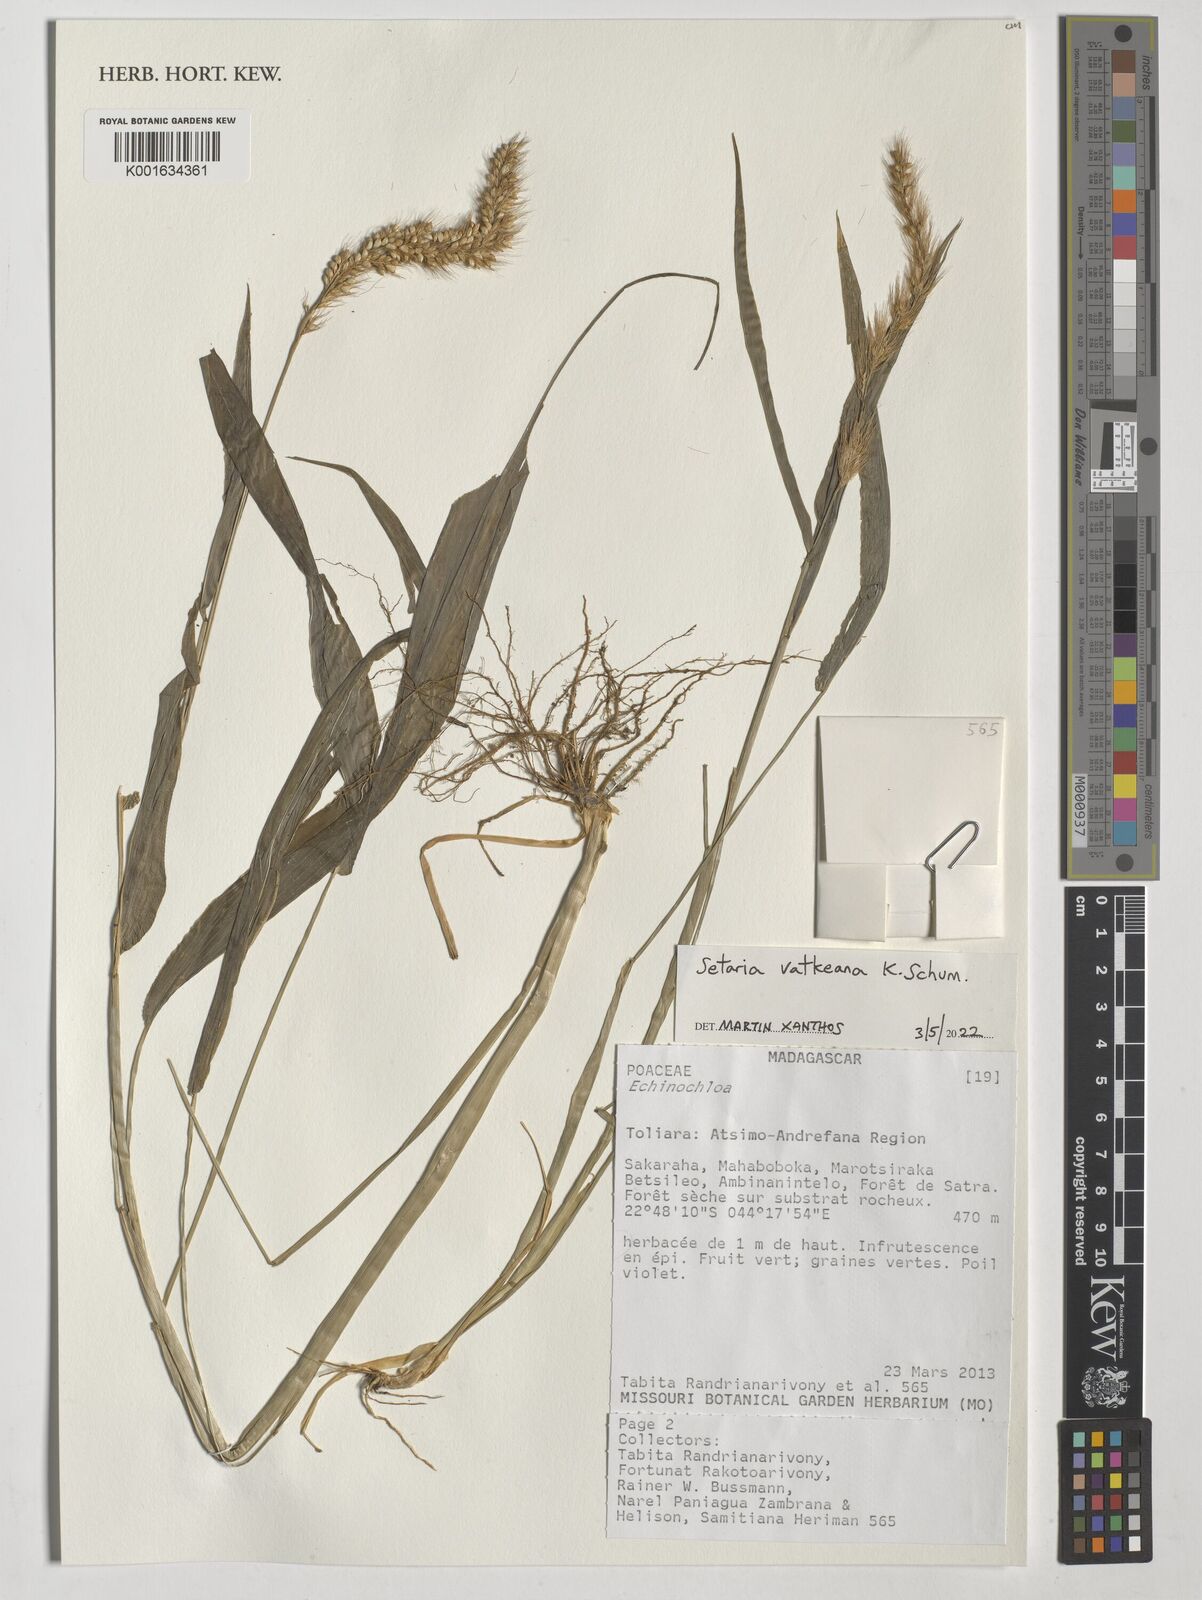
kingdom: Plantae
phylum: Tracheophyta
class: Liliopsida
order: Poales
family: Poaceae
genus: Setaria
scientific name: Setaria vatkeana
